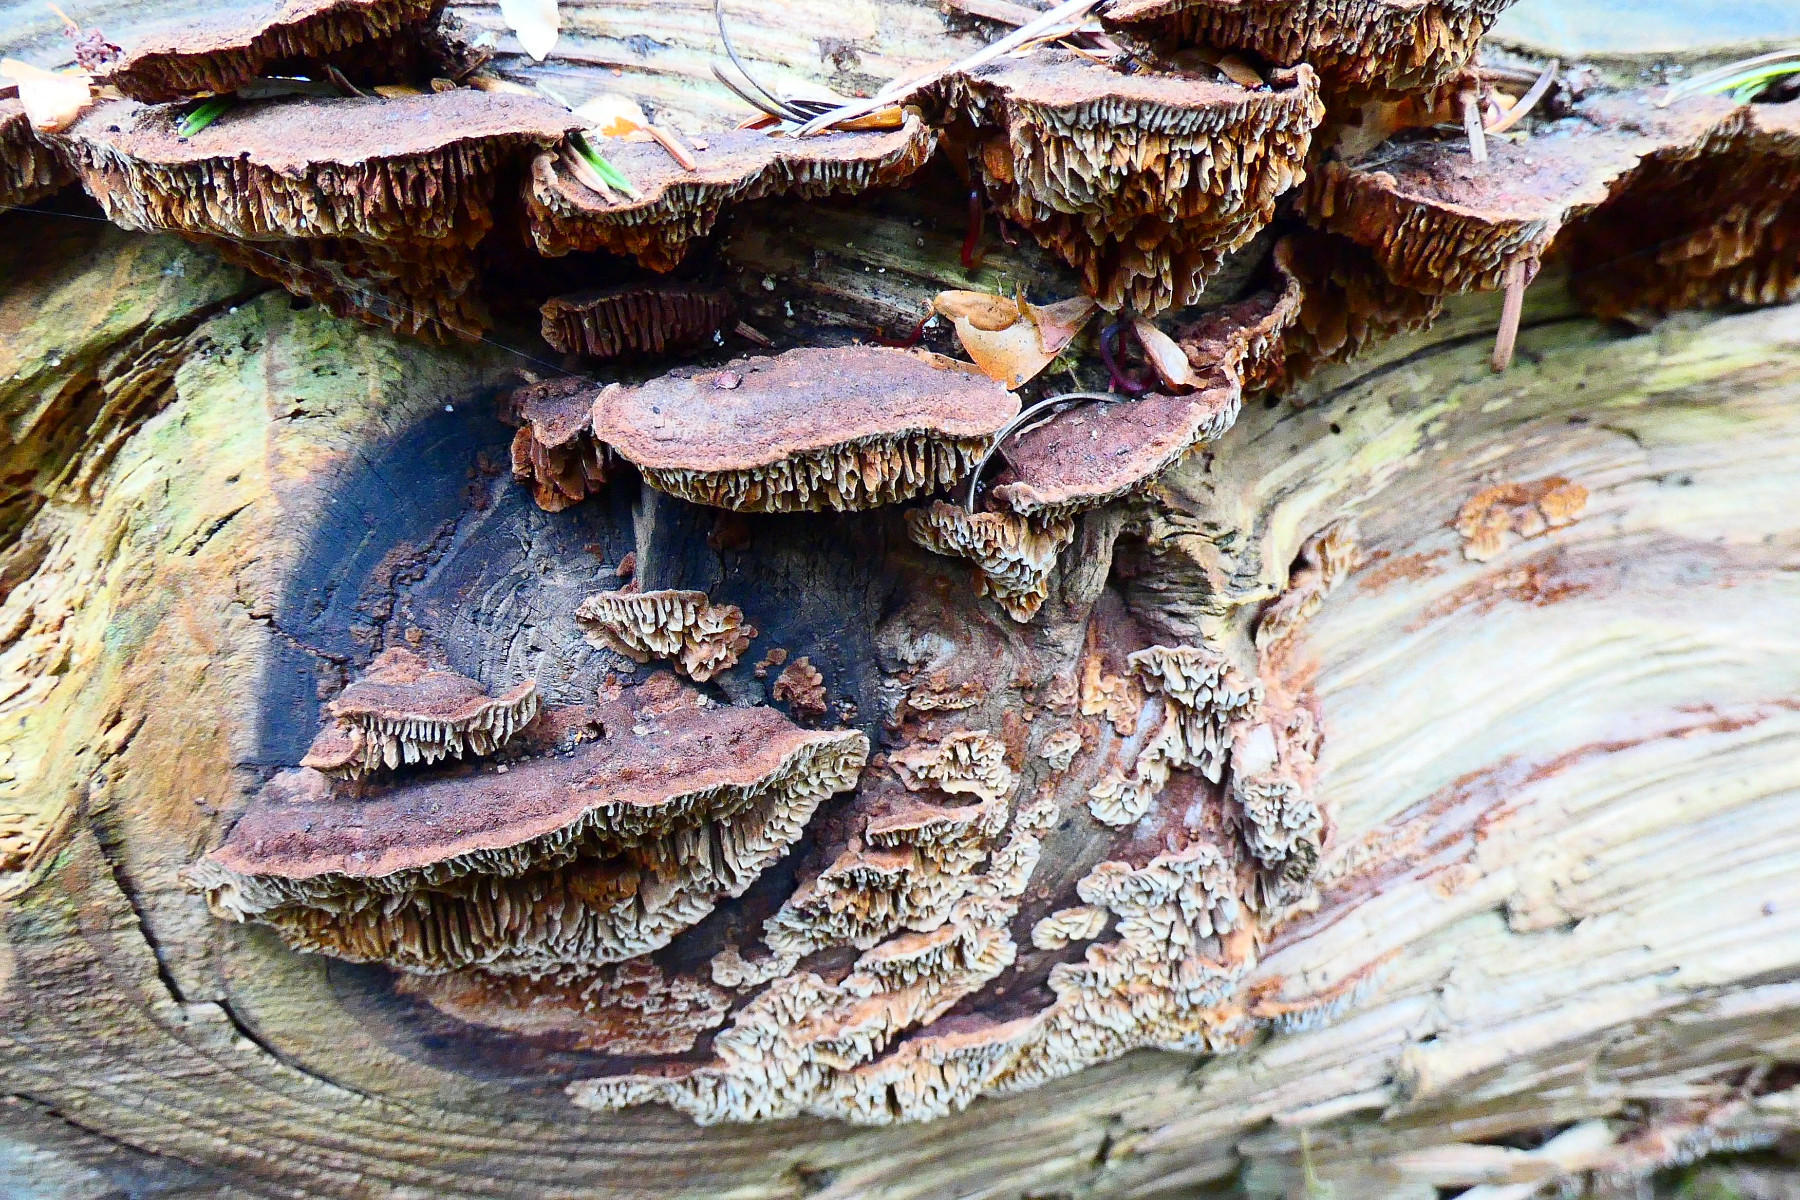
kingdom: Fungi
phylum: Basidiomycota
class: Agaricomycetes
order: Gloeophyllales
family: Gloeophyllaceae
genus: Gloeophyllum
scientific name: Gloeophyllum abietinum
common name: gran-korkhat
